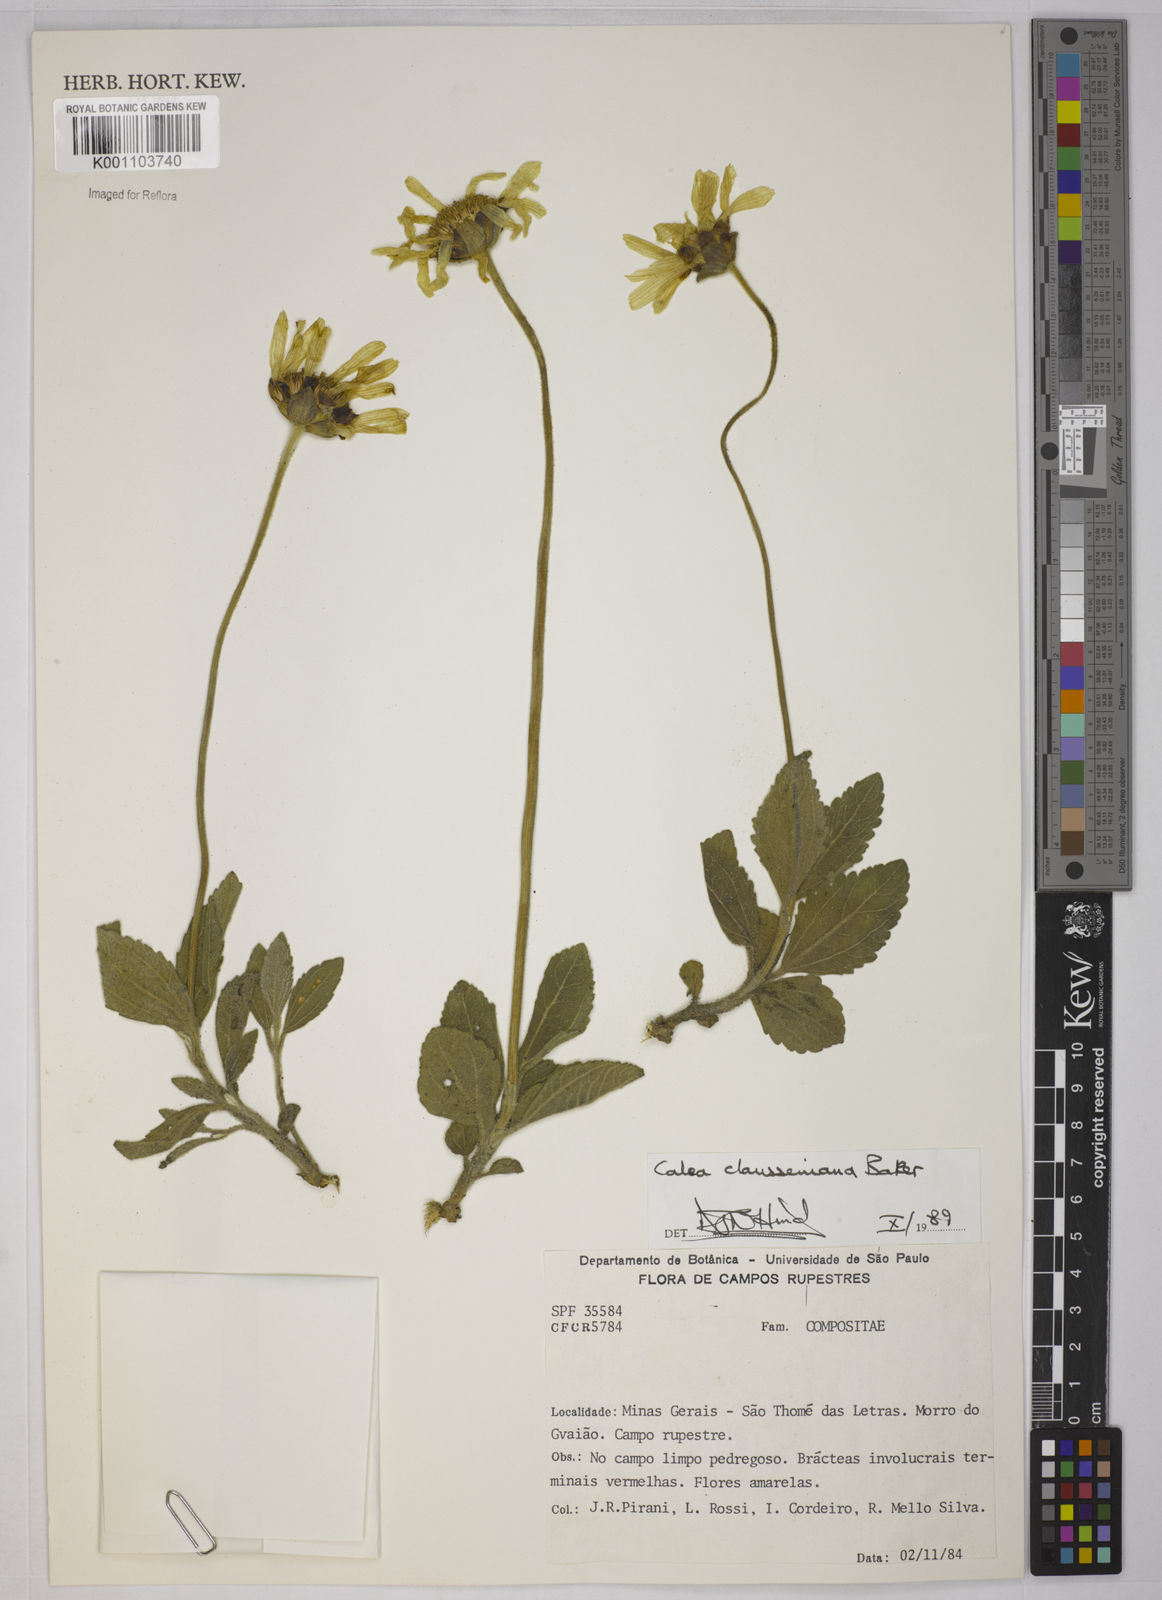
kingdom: Plantae
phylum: Tracheophyta
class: Magnoliopsida
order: Asterales
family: Asteraceae
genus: Calea
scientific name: Calea clausseniana
